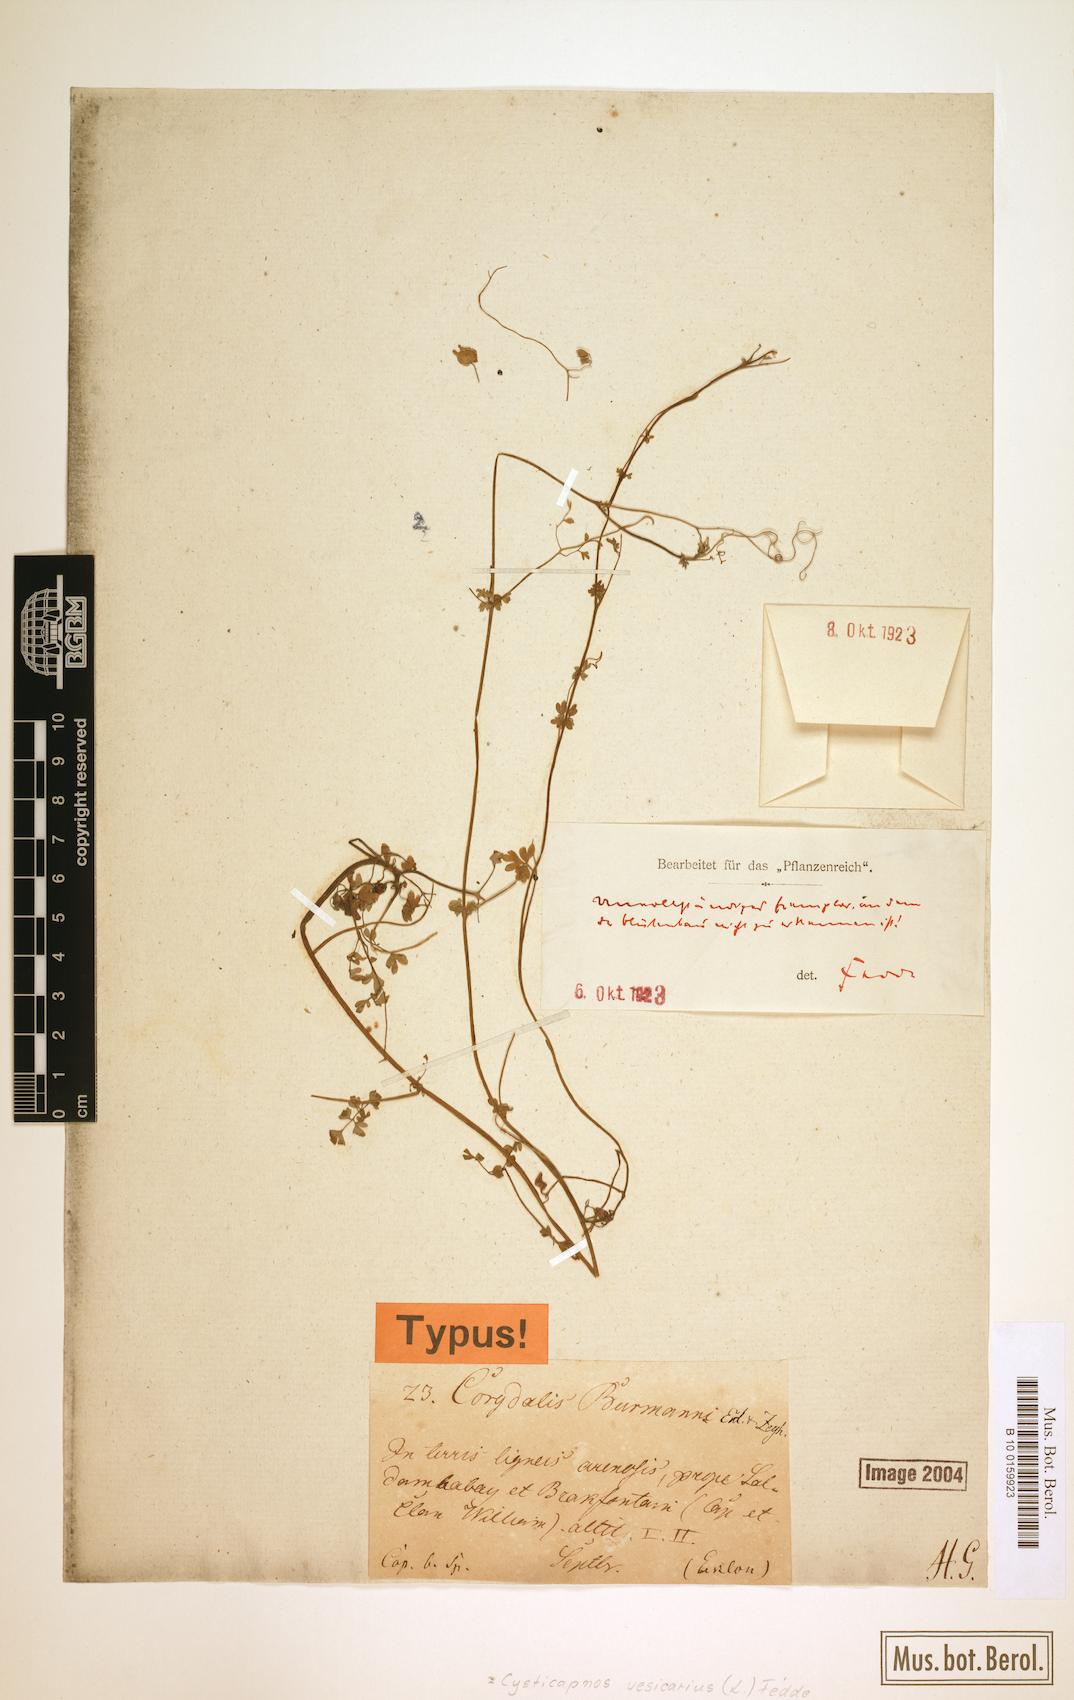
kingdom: Plantae
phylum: Tracheophyta
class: Magnoliopsida
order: Ranunculales
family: Papaveraceae
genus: Cysticapnos
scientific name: Cysticapnos vesicaria
